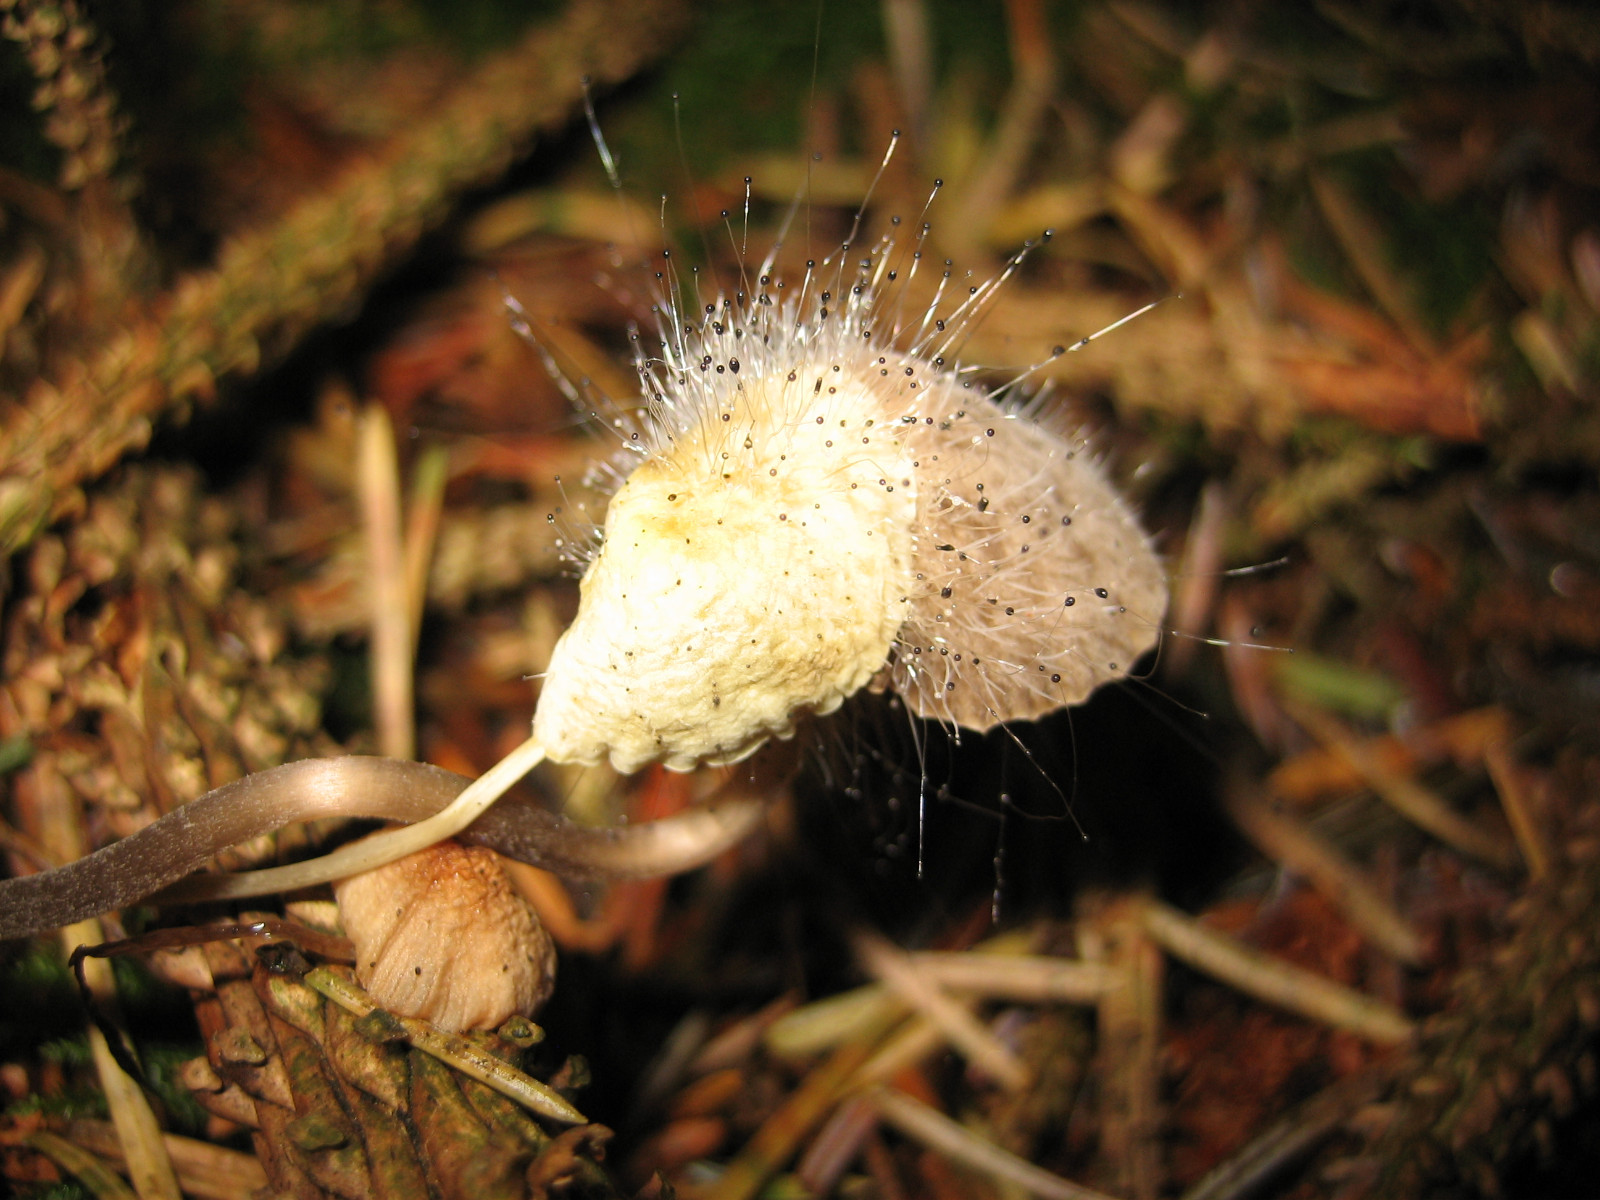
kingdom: Fungi
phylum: Mucoromycota
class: Mucoromycetes
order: Mucorales
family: Phycomycetaceae
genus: Spinellus
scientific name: Spinellus fusiger
